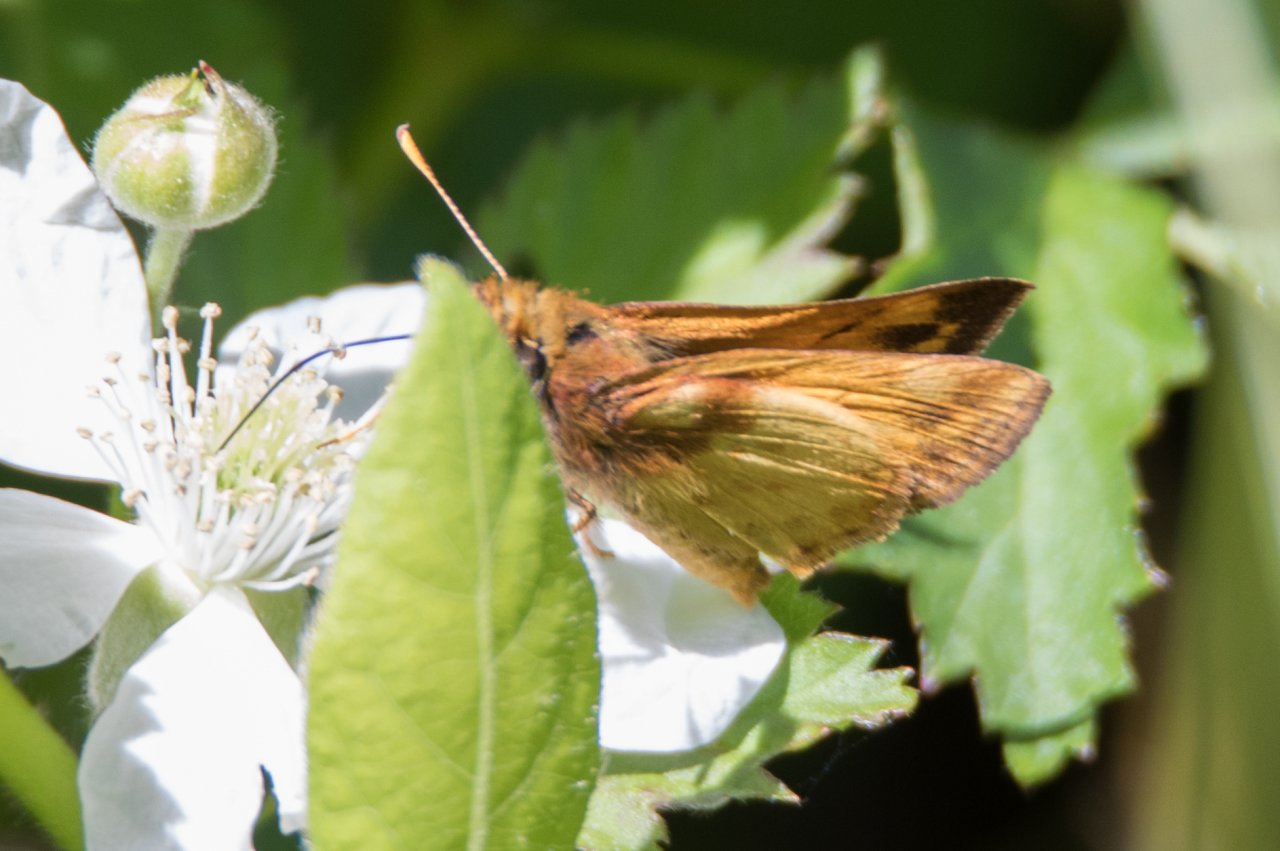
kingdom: Animalia
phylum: Arthropoda
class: Insecta
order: Lepidoptera
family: Hesperiidae
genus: Lon
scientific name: Lon zabulon
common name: Zabulon Skipper
